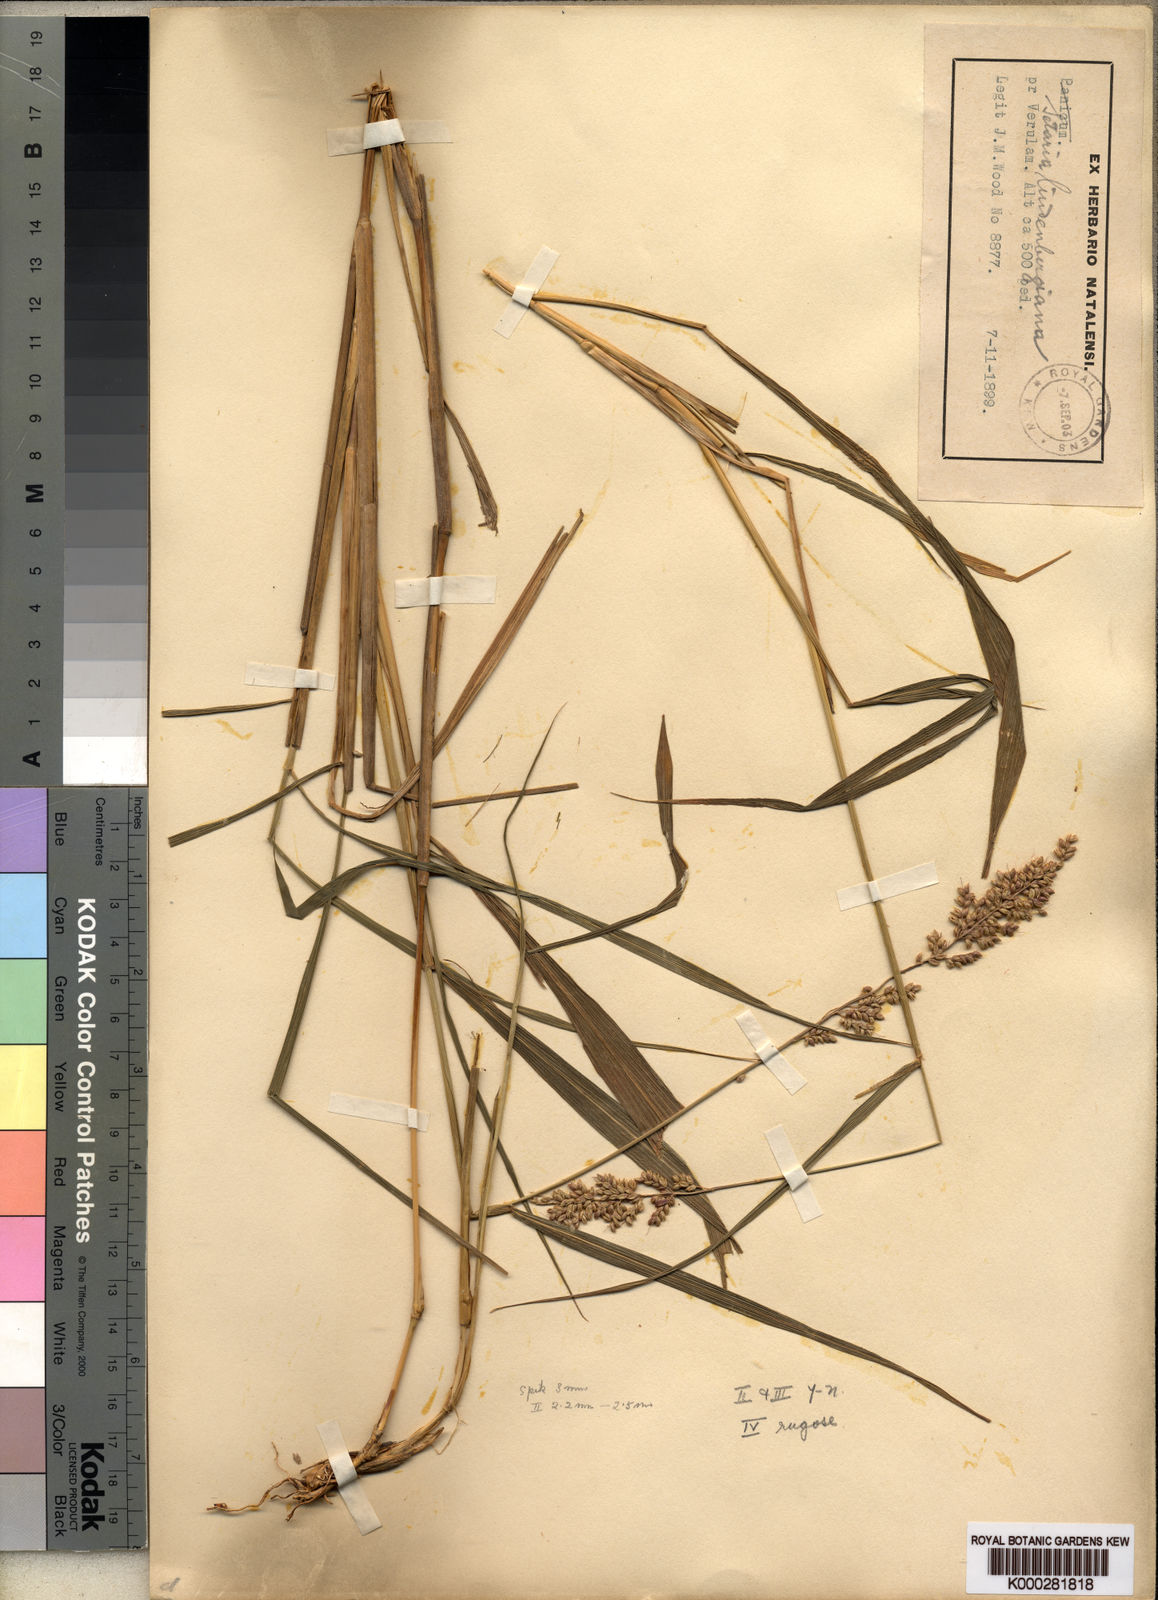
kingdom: Plantae
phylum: Tracheophyta
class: Liliopsida
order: Poales
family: Poaceae
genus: Setaria
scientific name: Setaria lindenbergiana
